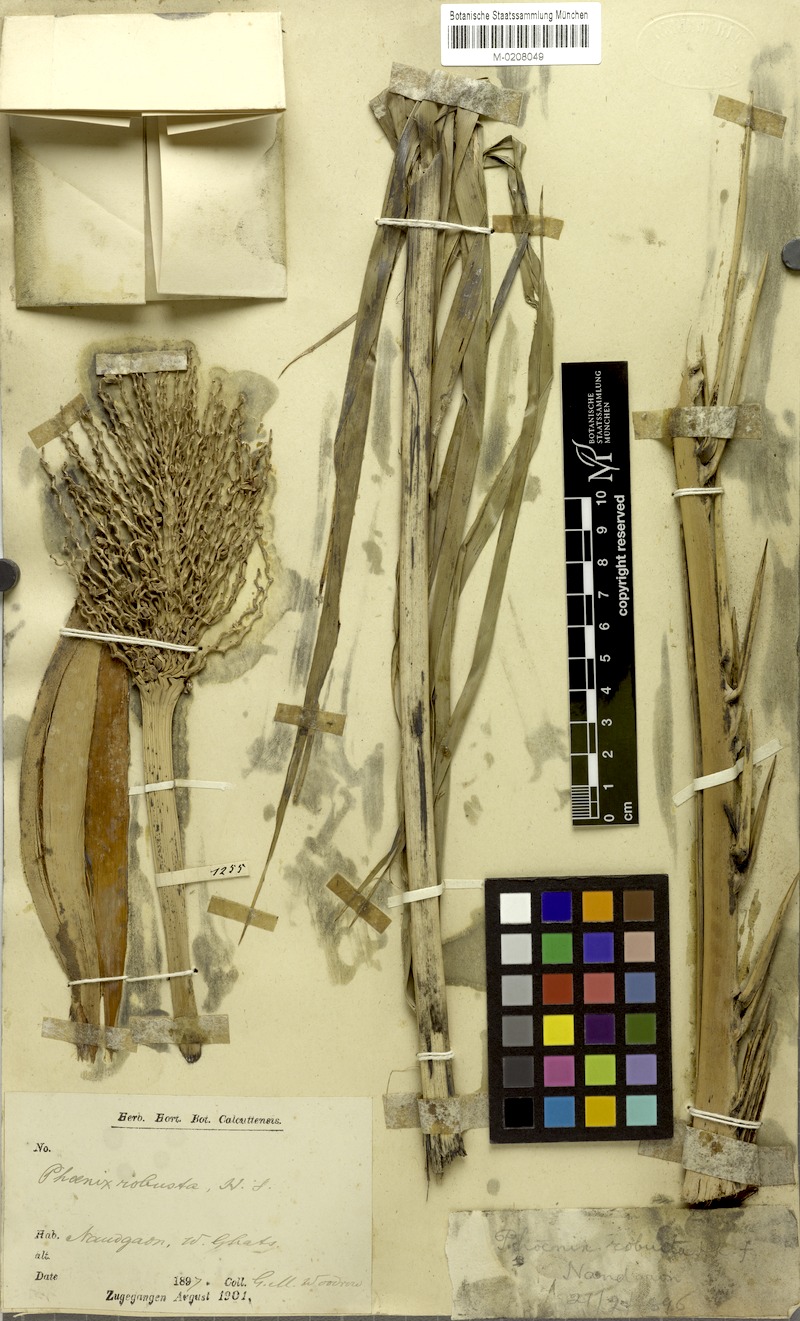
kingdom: Plantae
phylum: Tracheophyta
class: Liliopsida
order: Arecales
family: Arecaceae
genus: Phoenix
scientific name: Phoenix loureiroi
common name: Loureiro's palm
